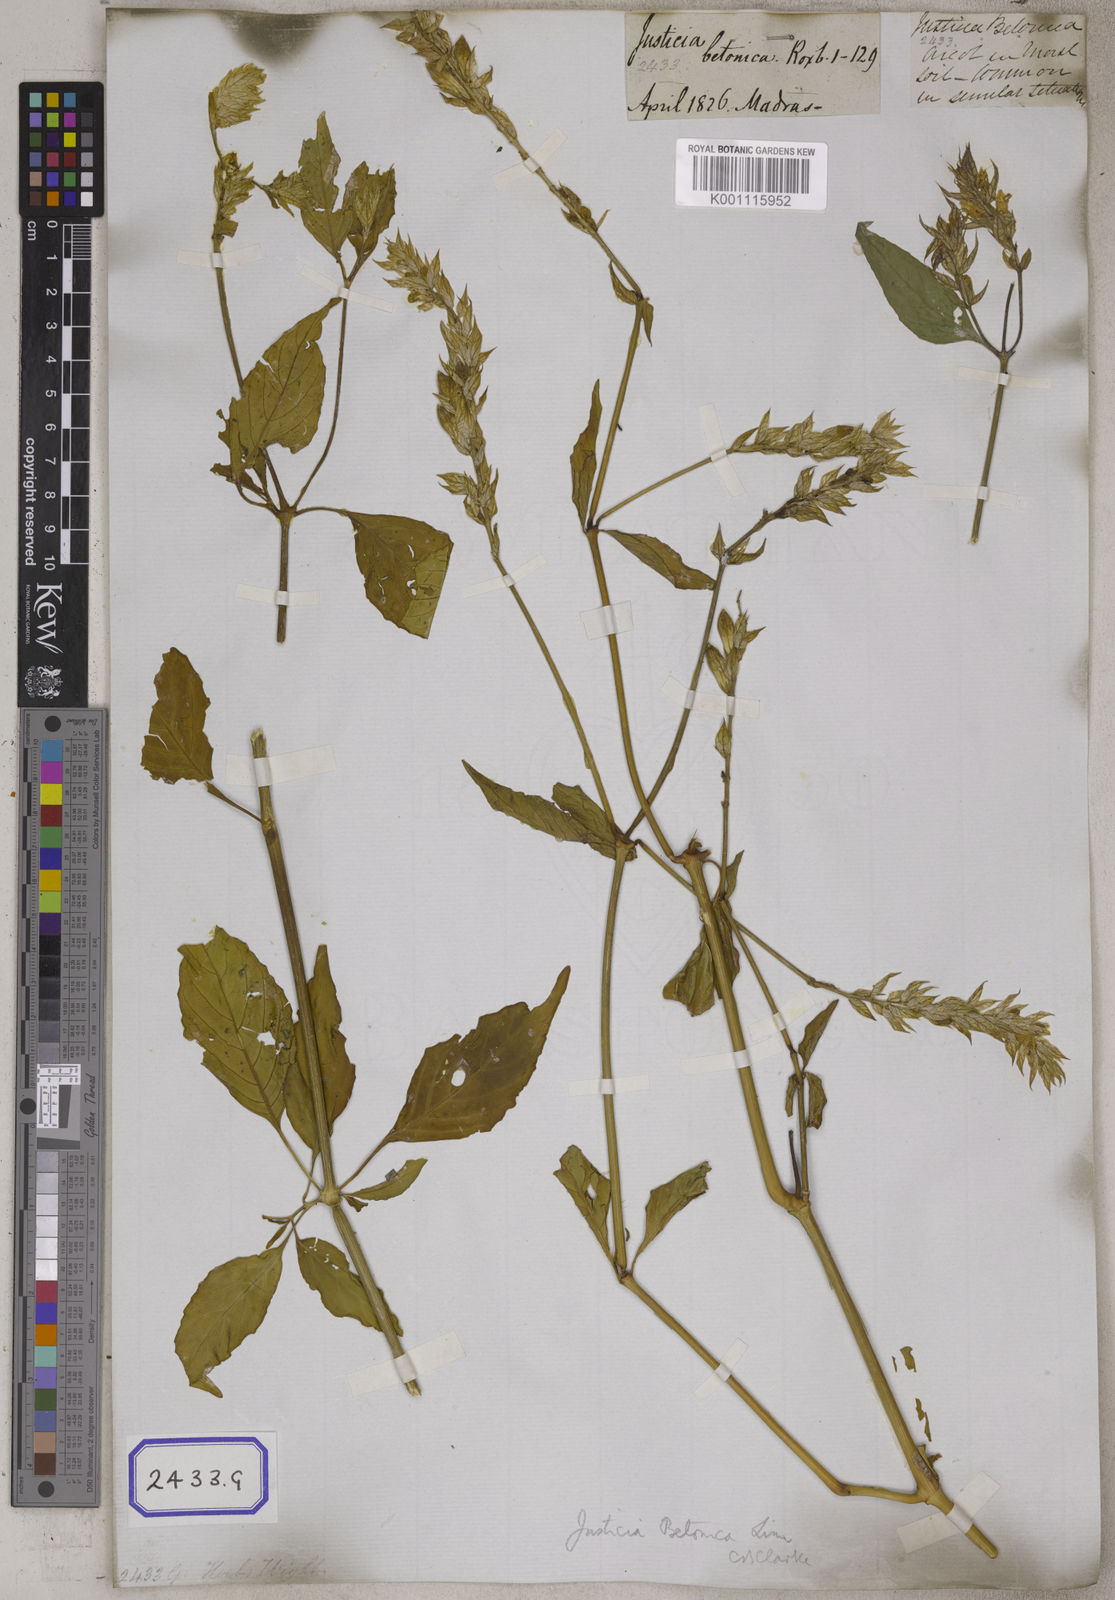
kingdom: Plantae
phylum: Tracheophyta
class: Magnoliopsida
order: Lamiales
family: Acanthaceae
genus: Nicoteba
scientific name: Nicoteba betonica
